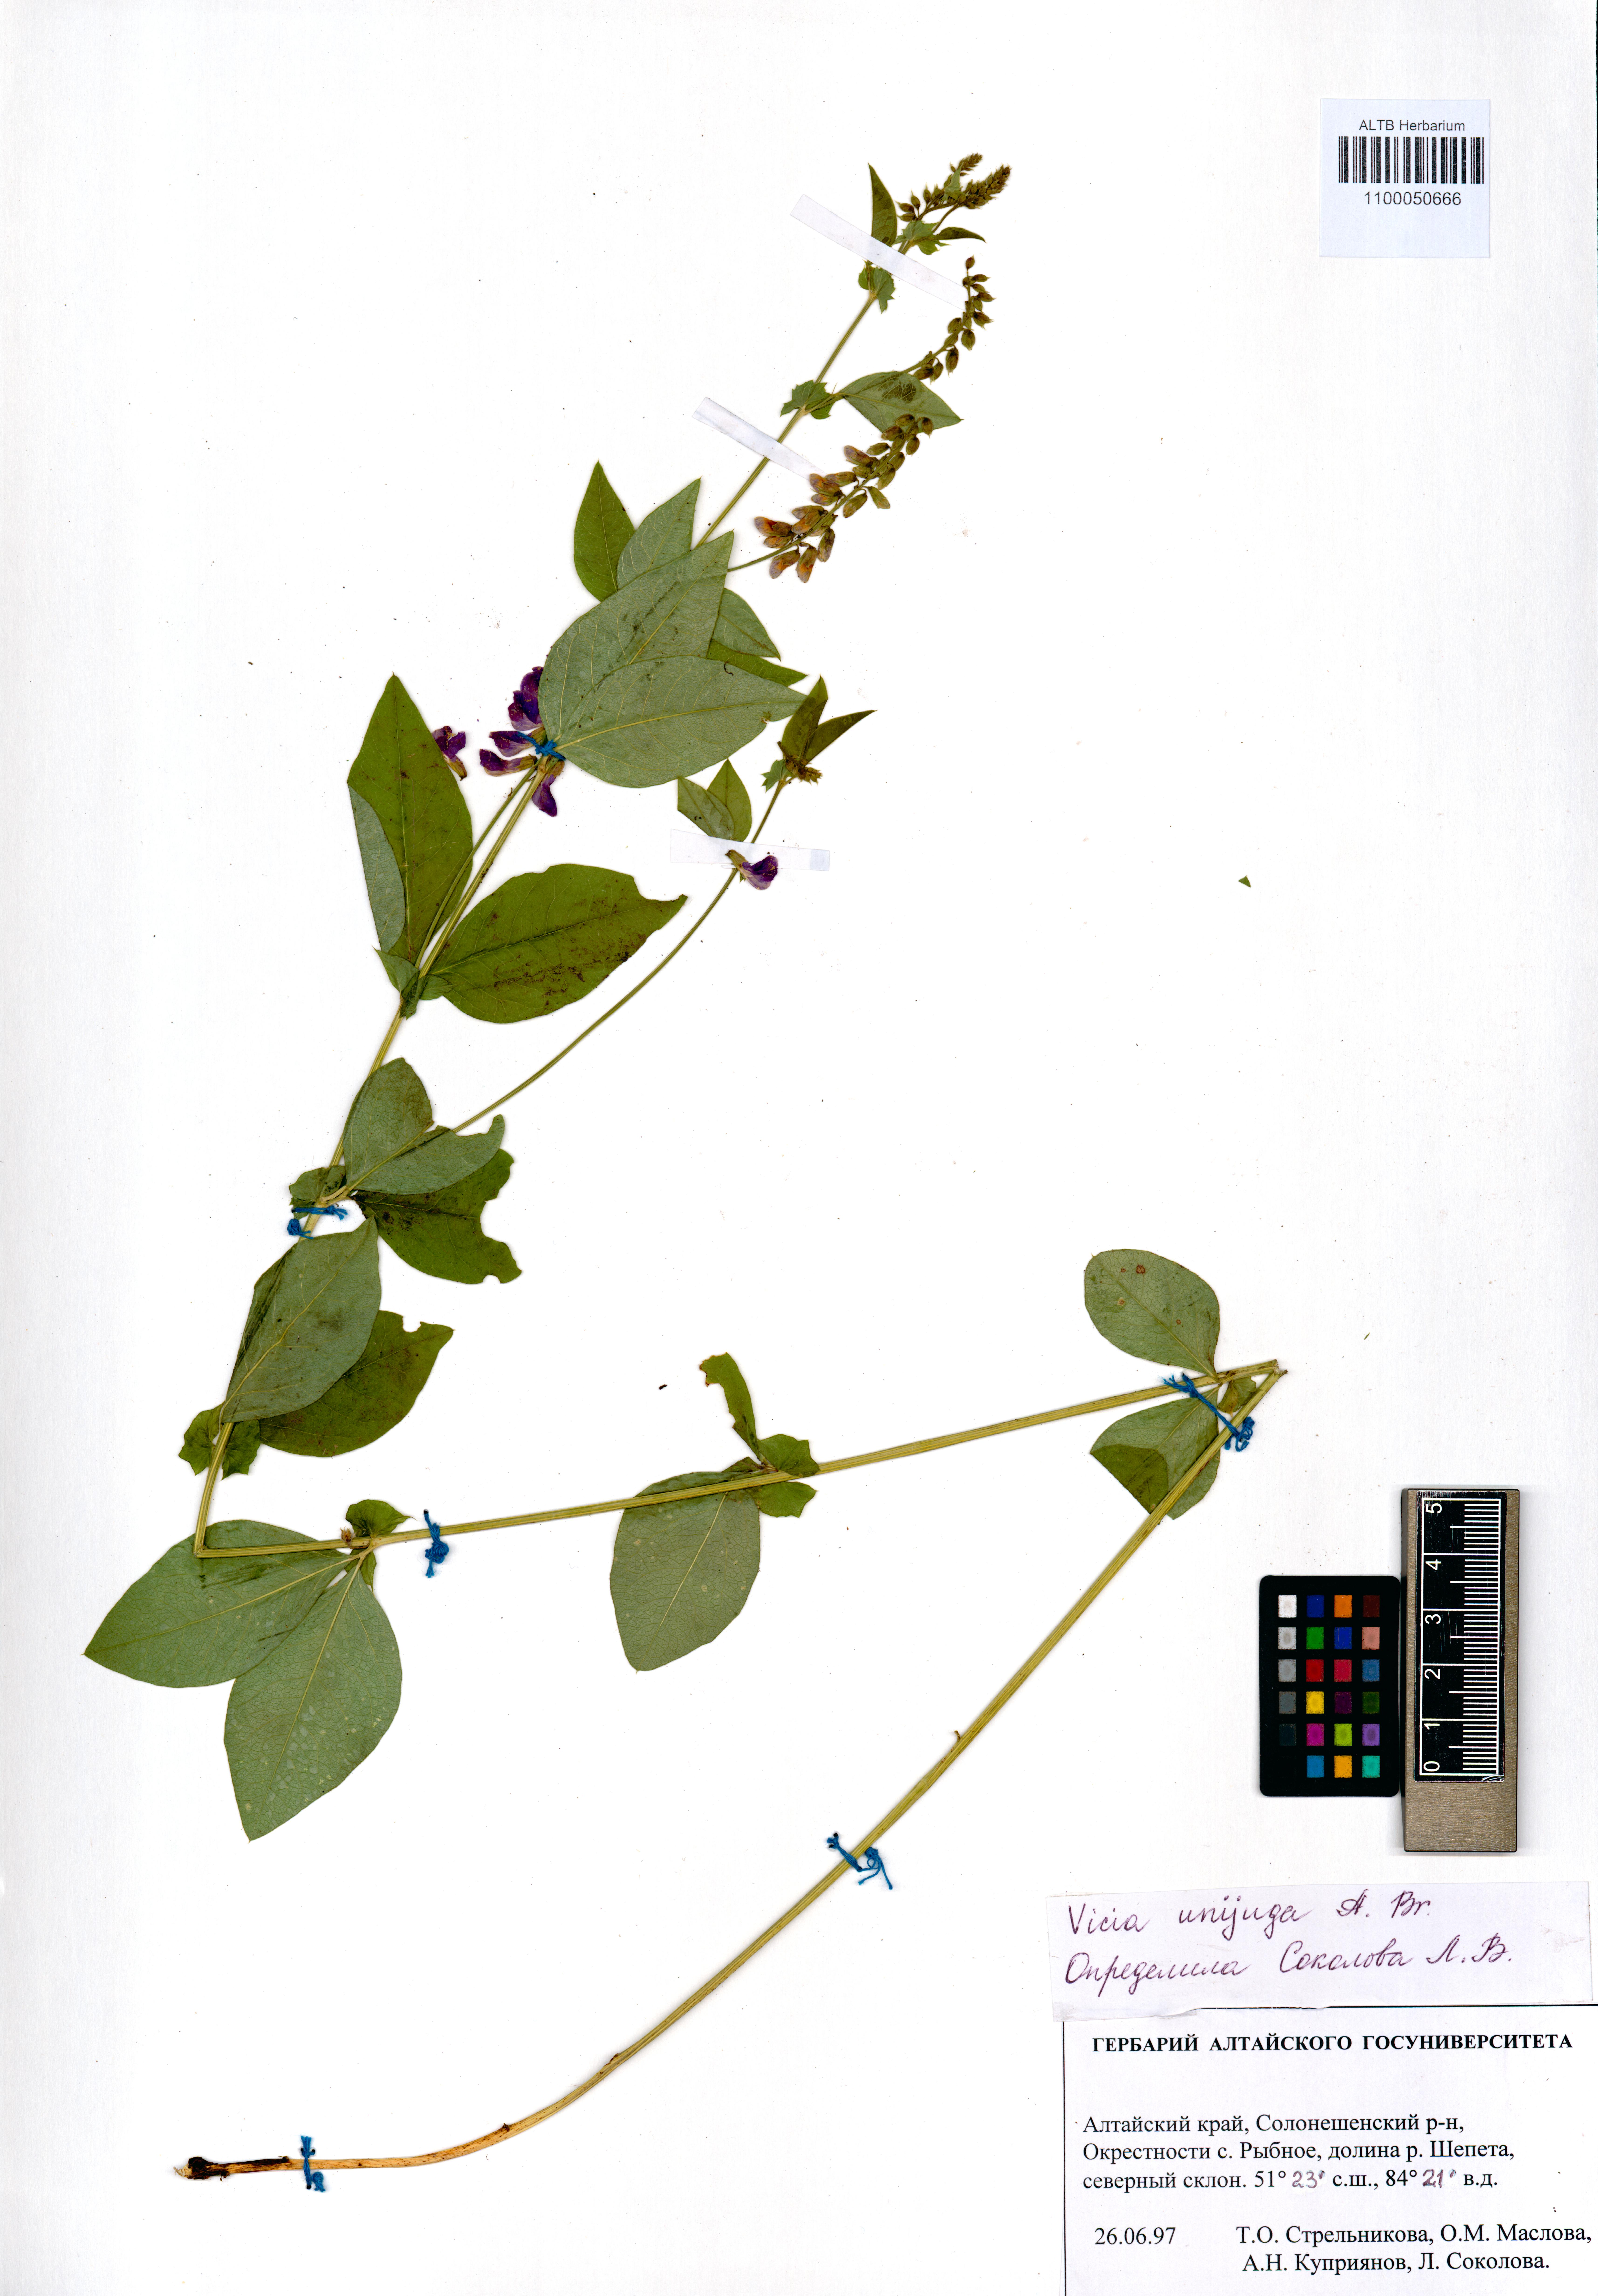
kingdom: Plantae
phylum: Tracheophyta
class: Magnoliopsida
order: Fabales
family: Fabaceae
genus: Vicia
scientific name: Vicia unijuga
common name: Two-leaf vetch
